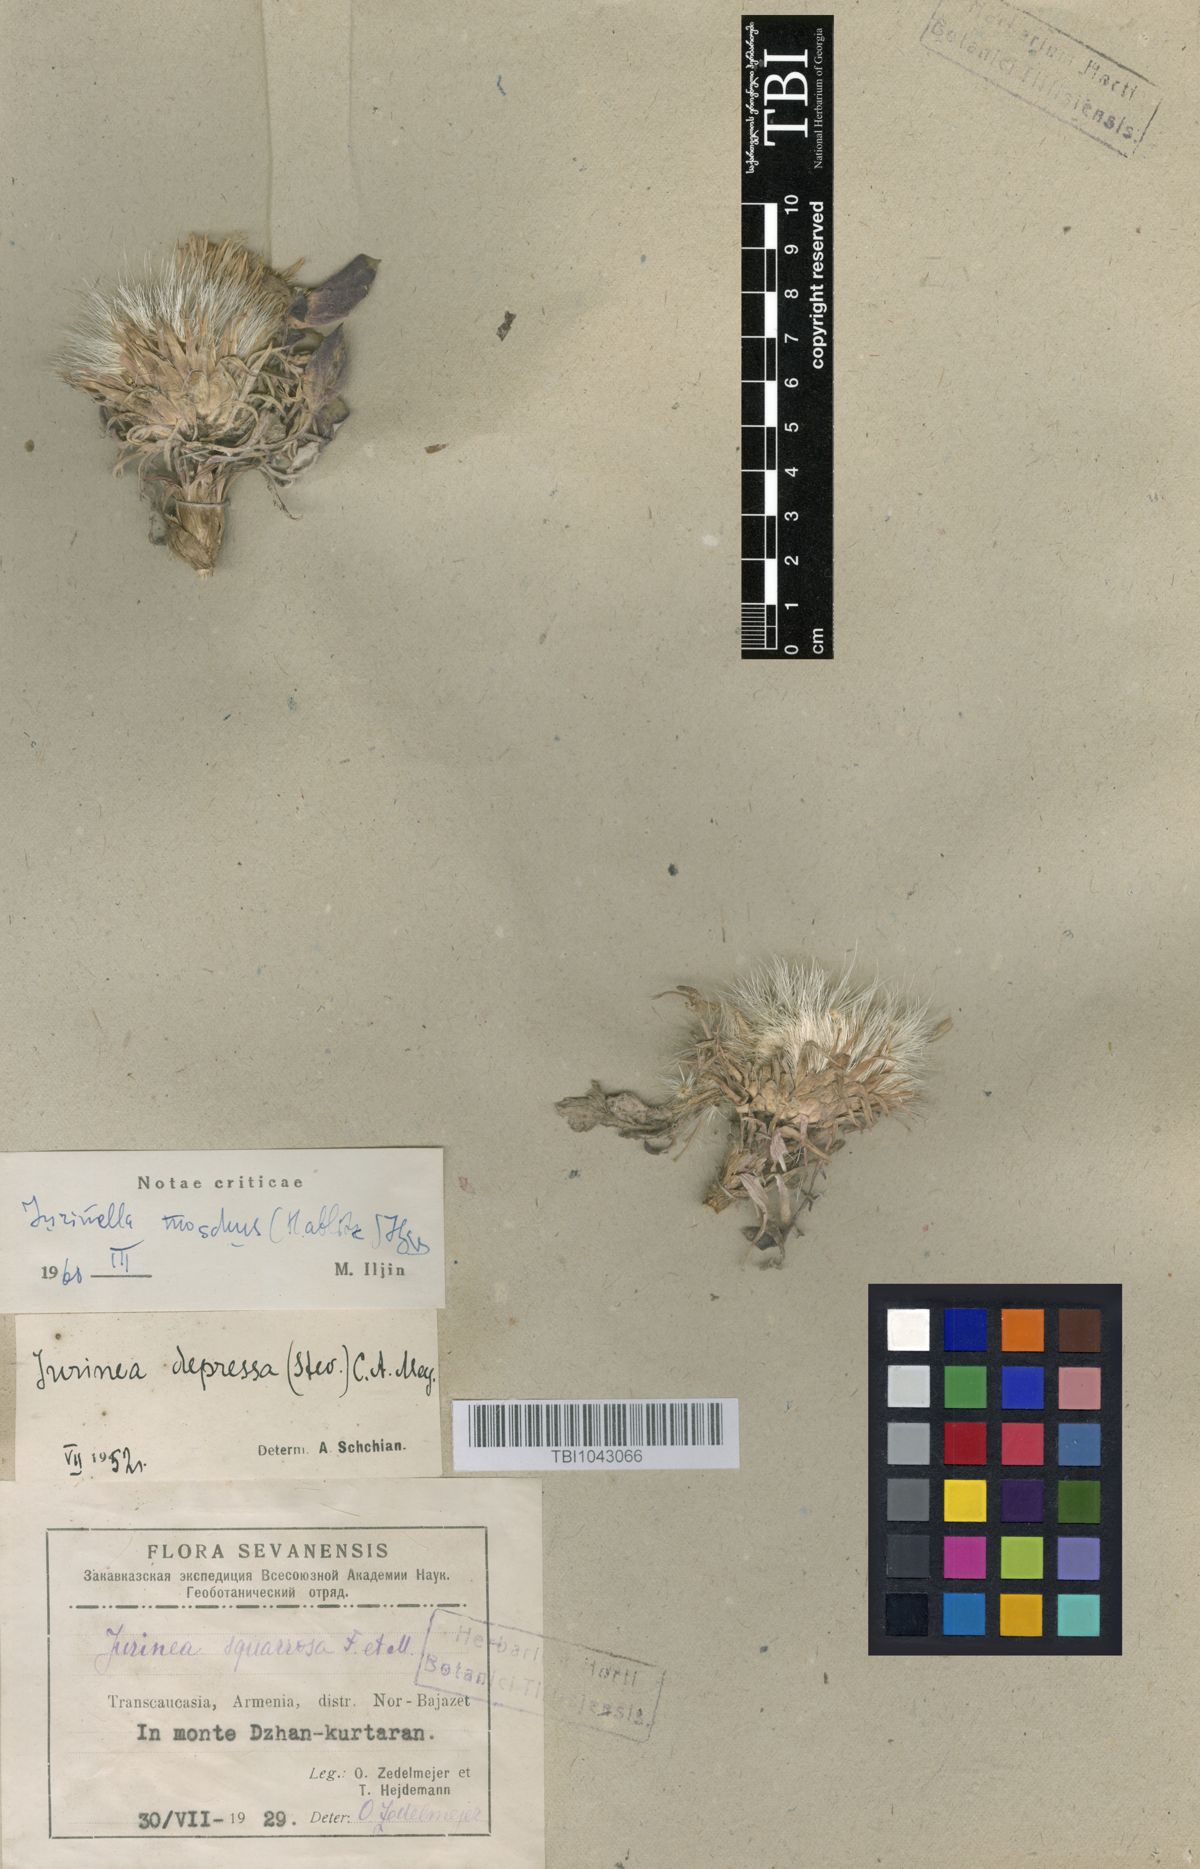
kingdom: Plantae
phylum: Tracheophyta
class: Magnoliopsida
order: Asterales
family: Asteraceae
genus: Jurinea
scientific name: Jurinea moschus
